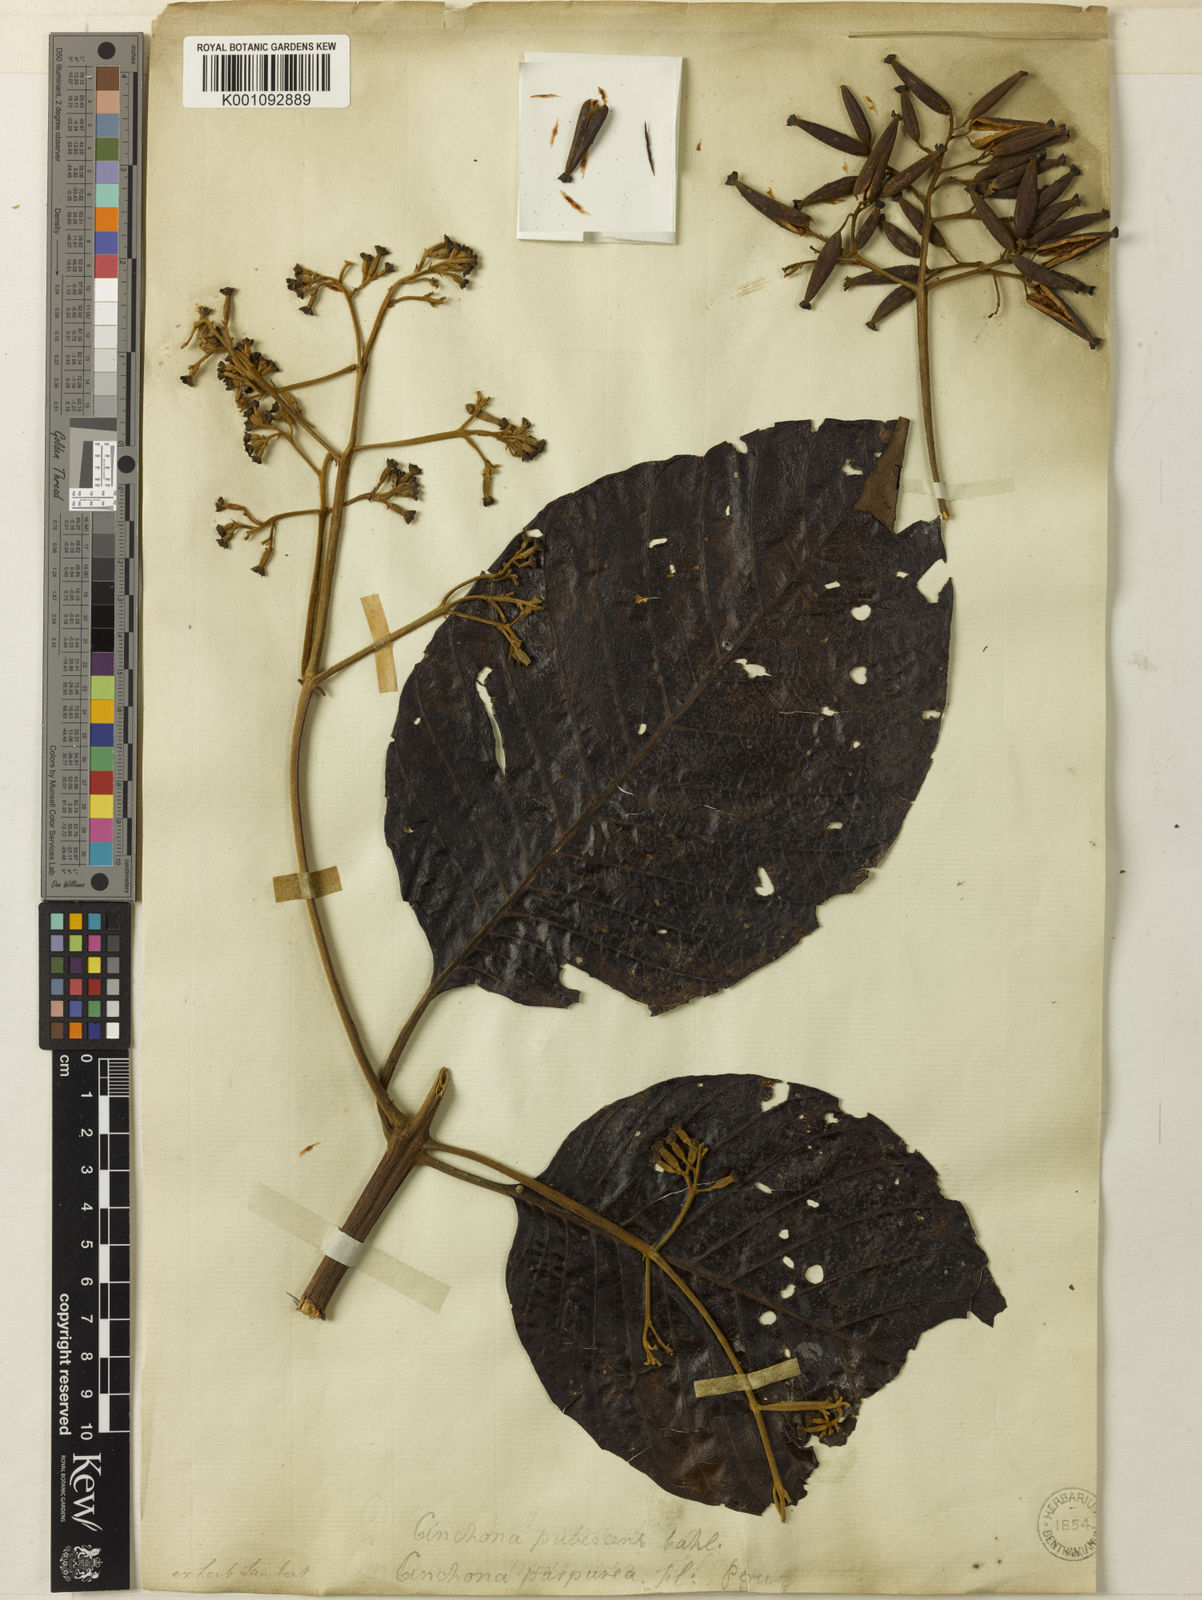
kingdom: Plantae
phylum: Tracheophyta
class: Magnoliopsida
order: Gentianales
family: Rubiaceae
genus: Cinchona
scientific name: Cinchona pubescens
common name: Quinine
